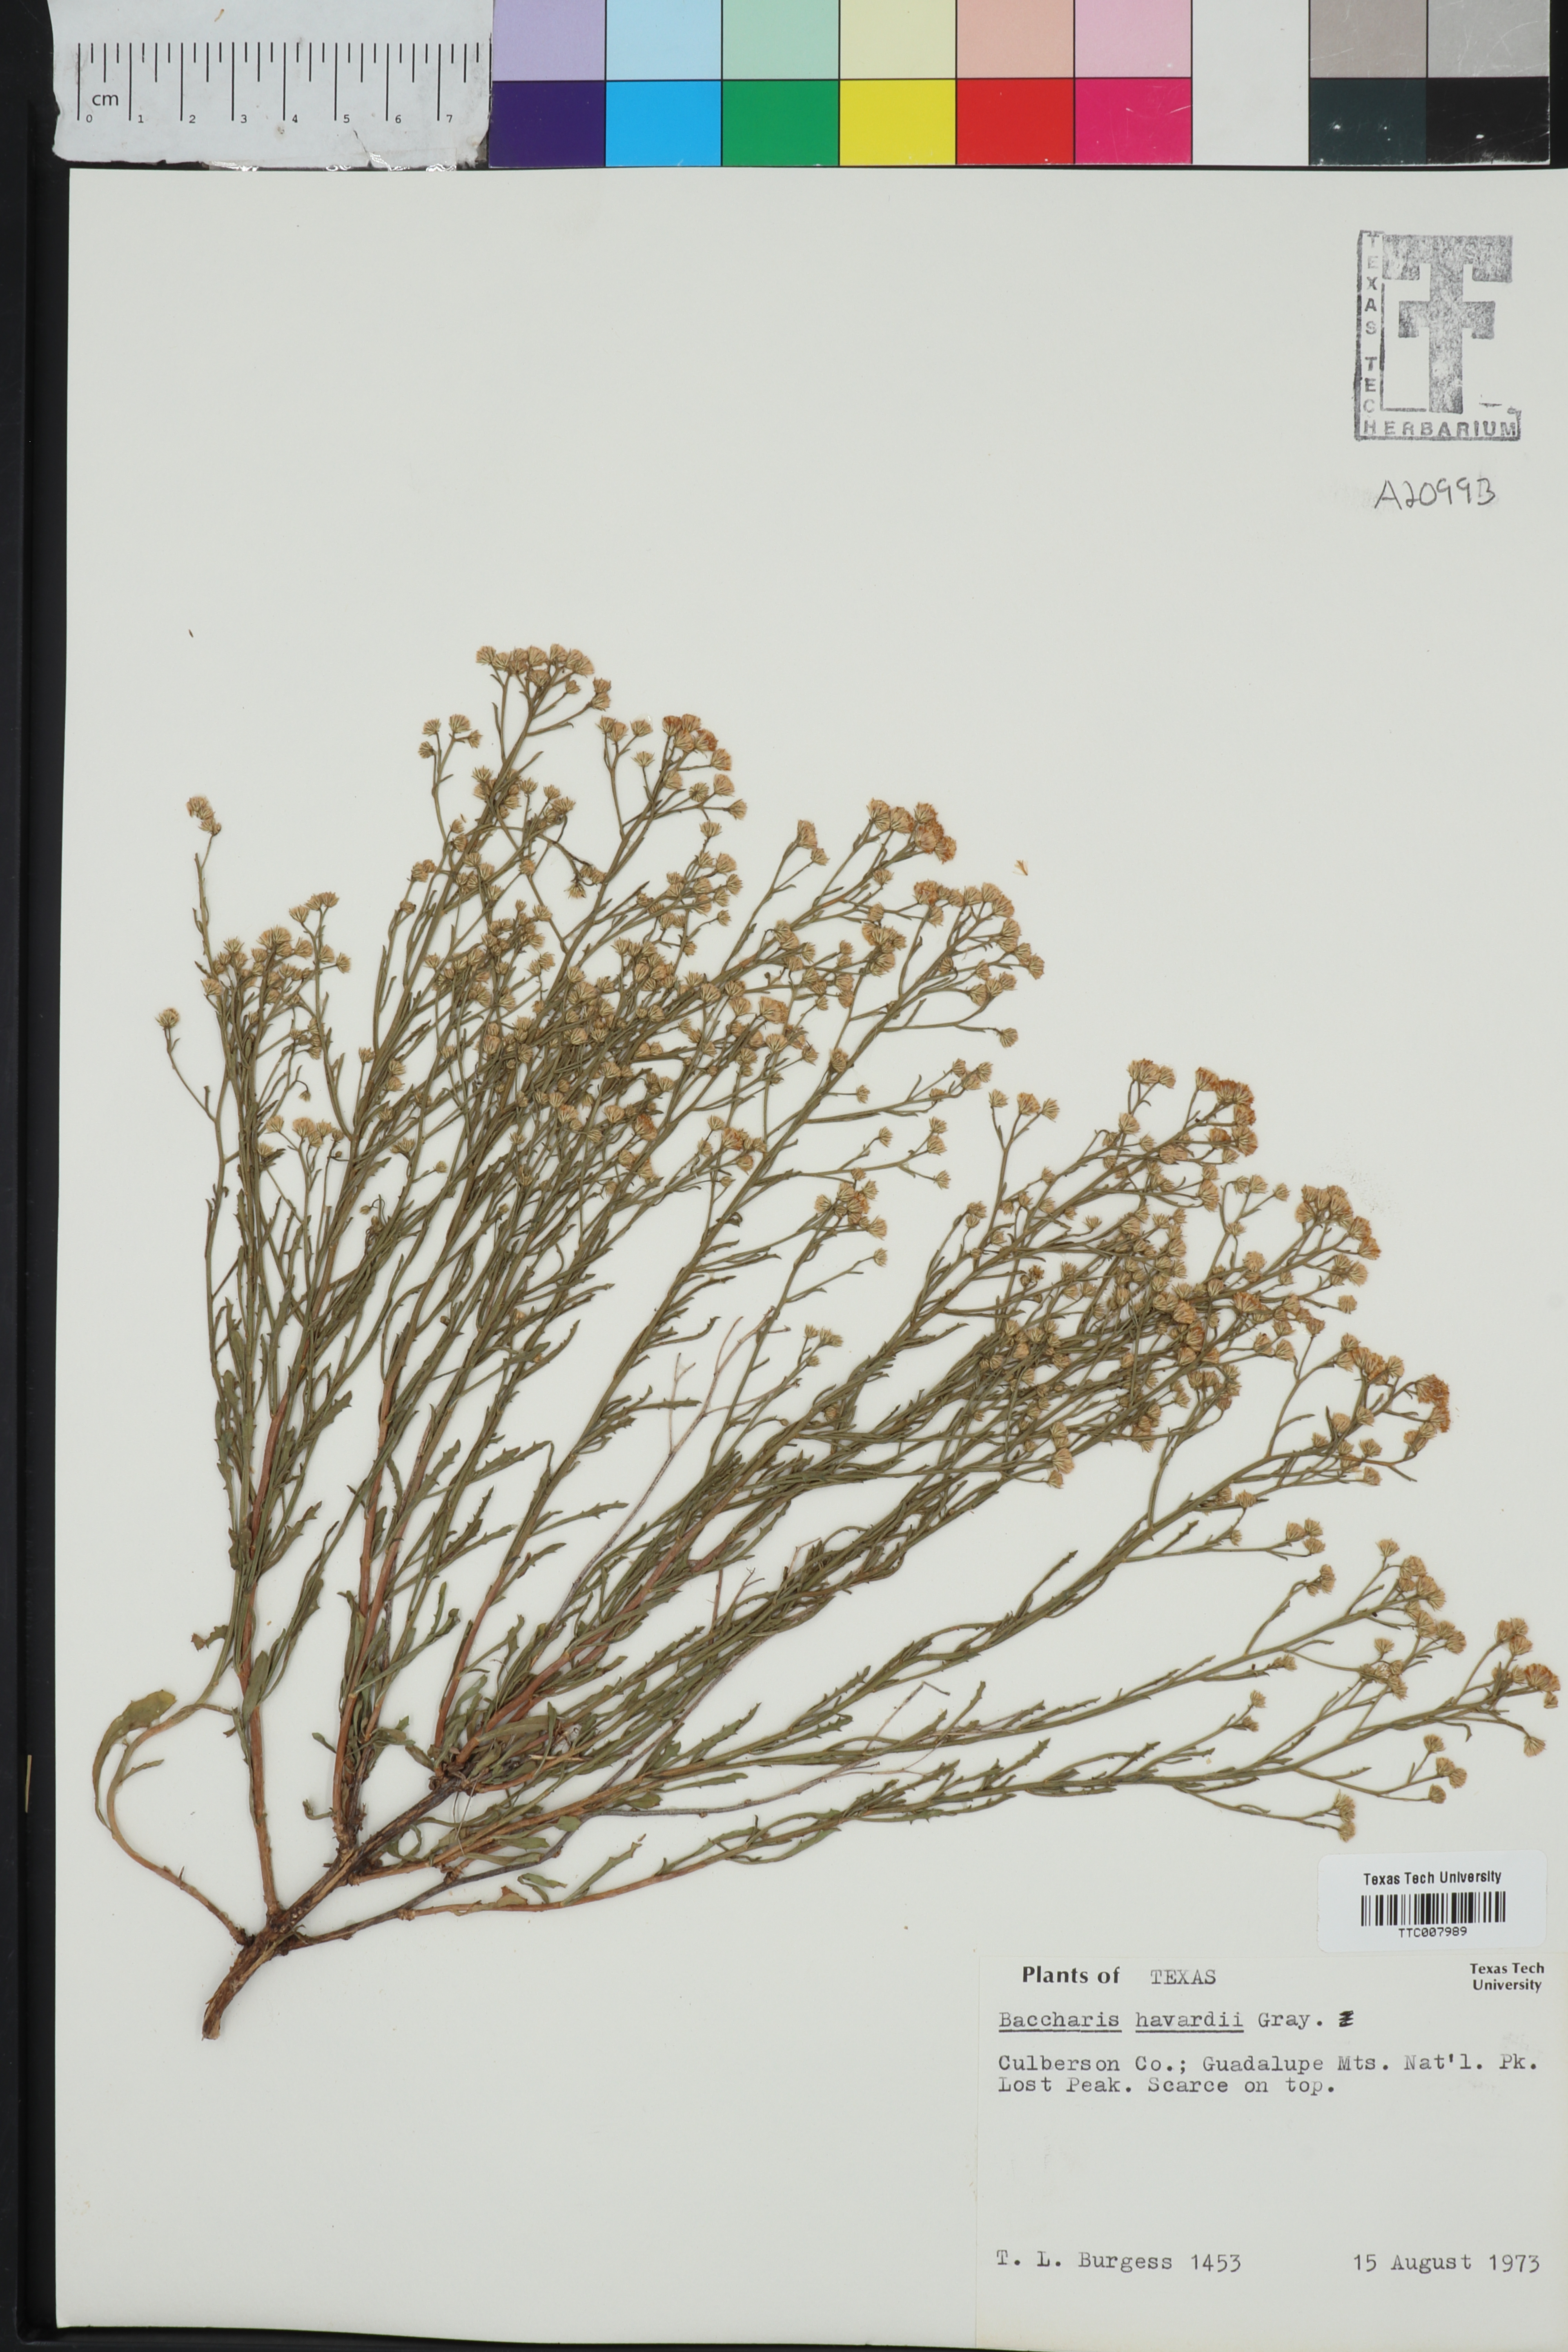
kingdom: Plantae
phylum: Tracheophyta
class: Magnoliopsida
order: Asterales
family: Asteraceae
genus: Baccharis
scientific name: Baccharis havardii
